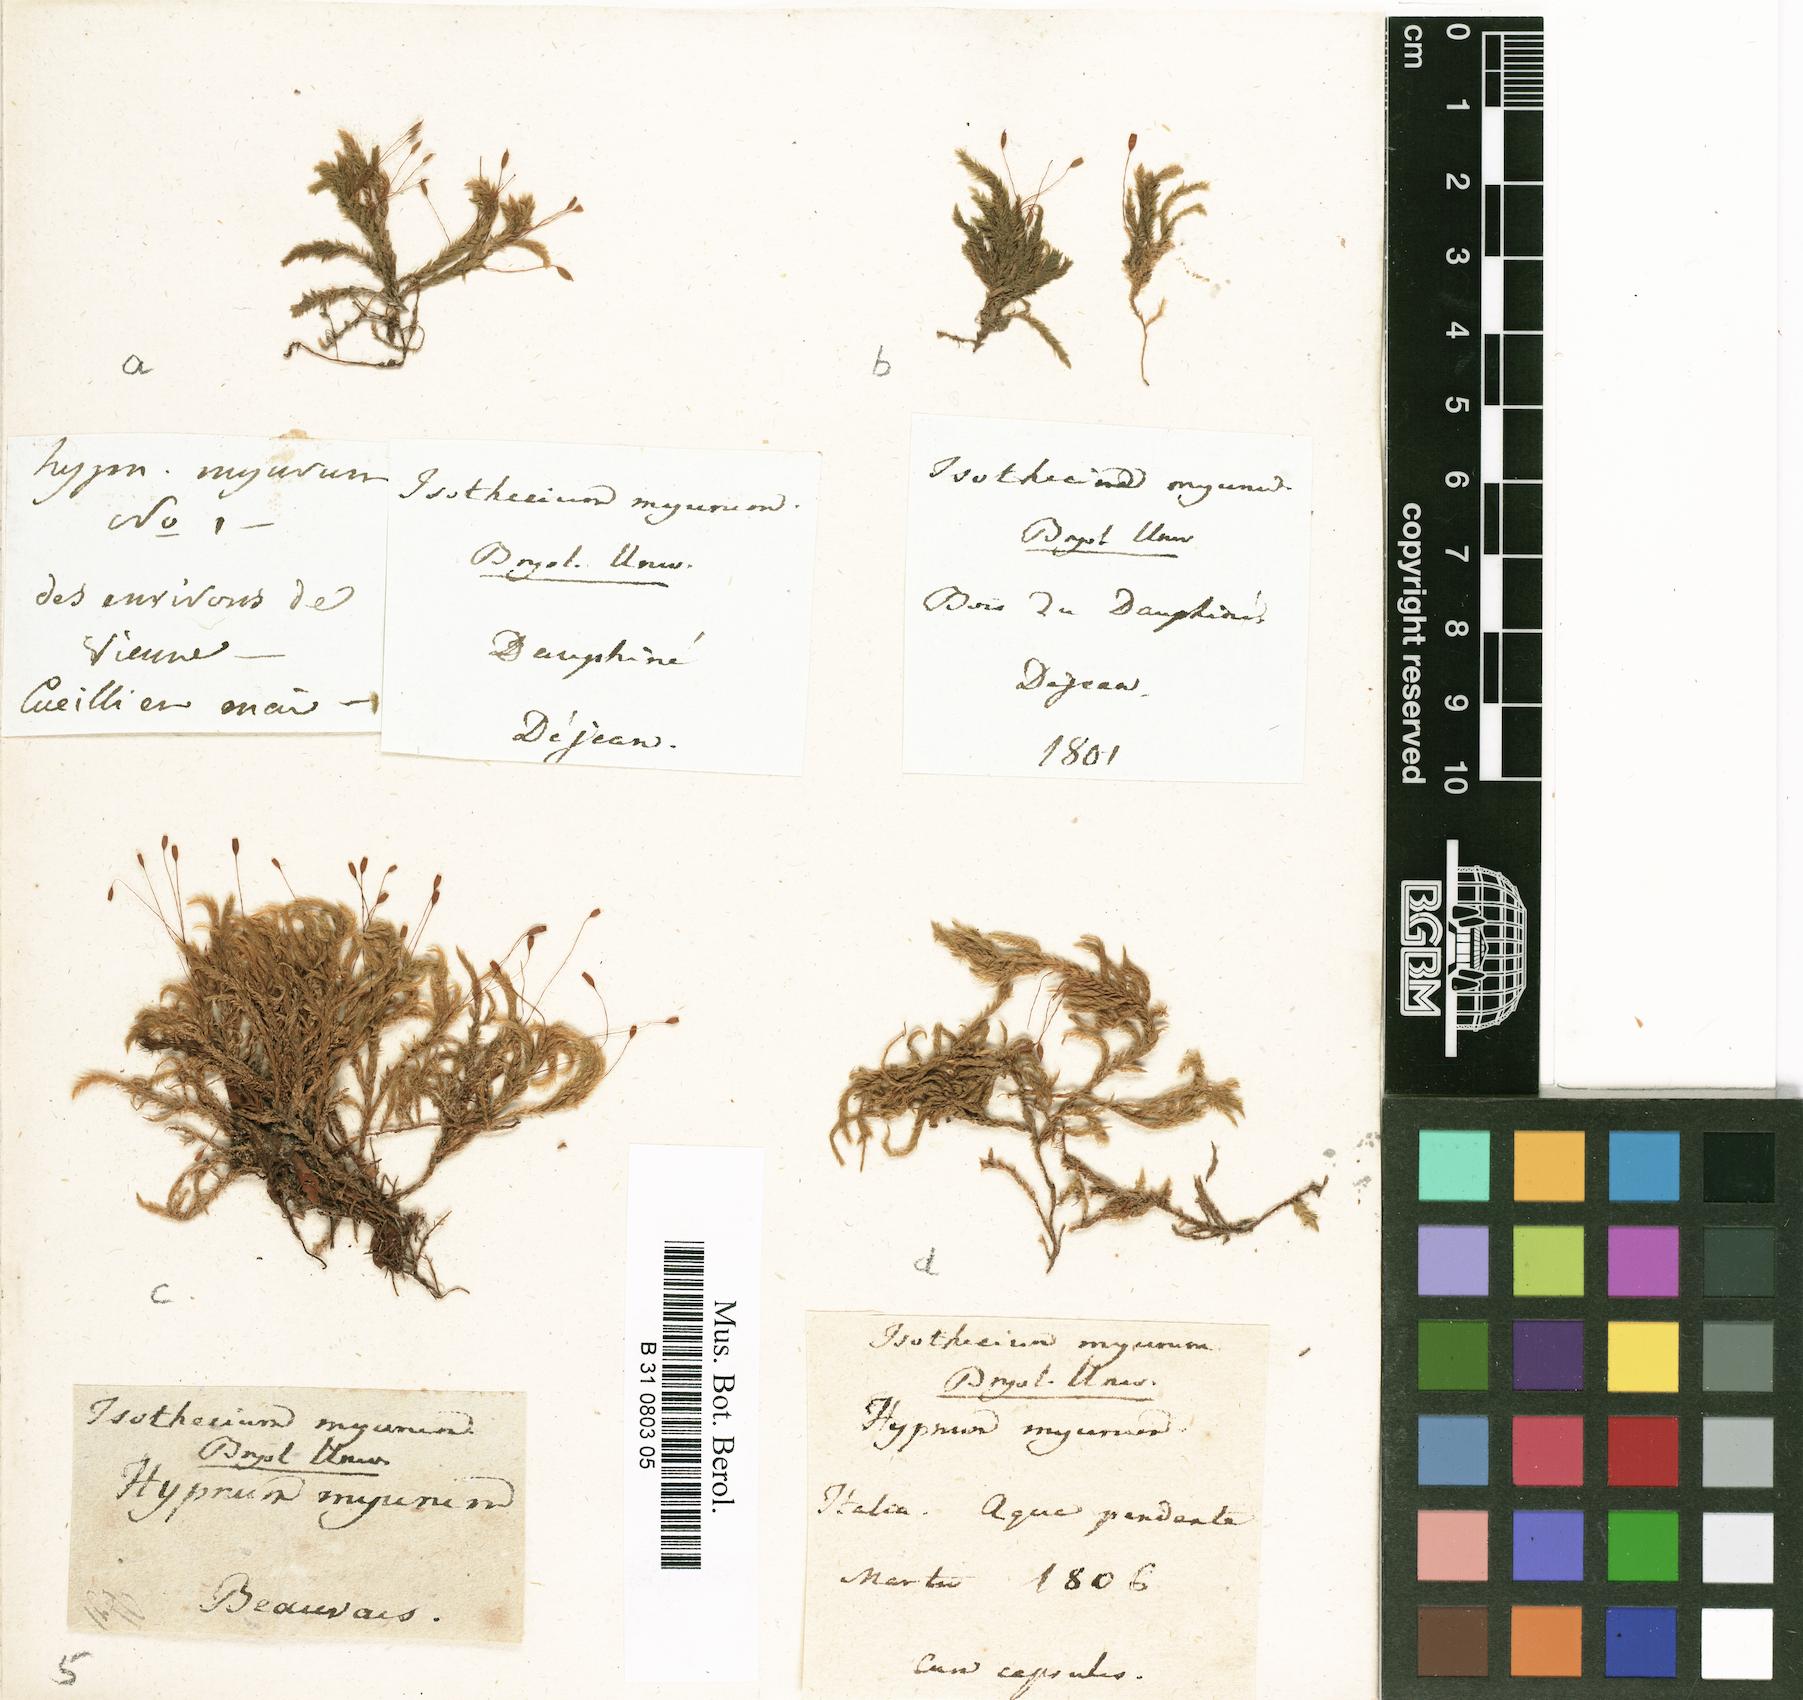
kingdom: Plantae
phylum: Bryophyta
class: Bryopsida
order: Hypnales
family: Lembophyllaceae
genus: Isothecium
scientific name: Isothecium alopecuroides
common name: Larger mouse-tail moss
